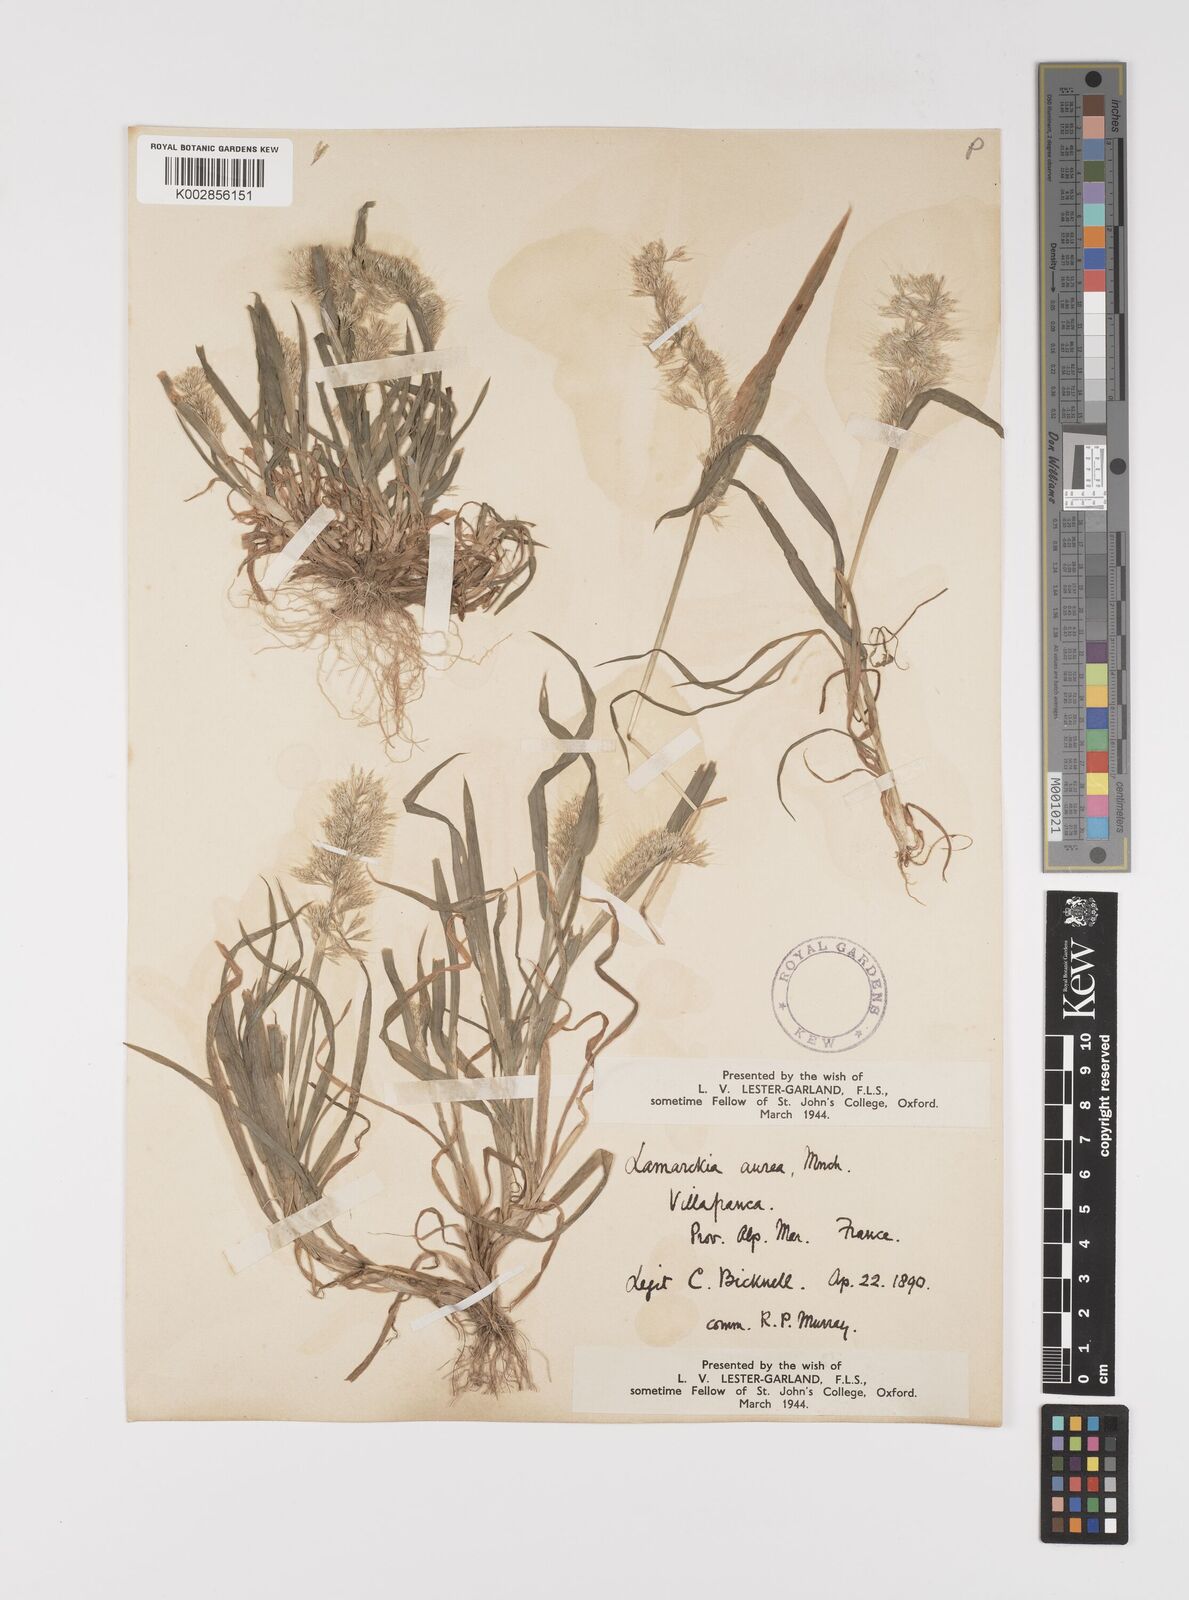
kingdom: Plantae
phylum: Tracheophyta
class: Liliopsida
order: Poales
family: Poaceae
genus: Lamarckia
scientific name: Lamarckia aurea
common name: Golden dog's-tail
